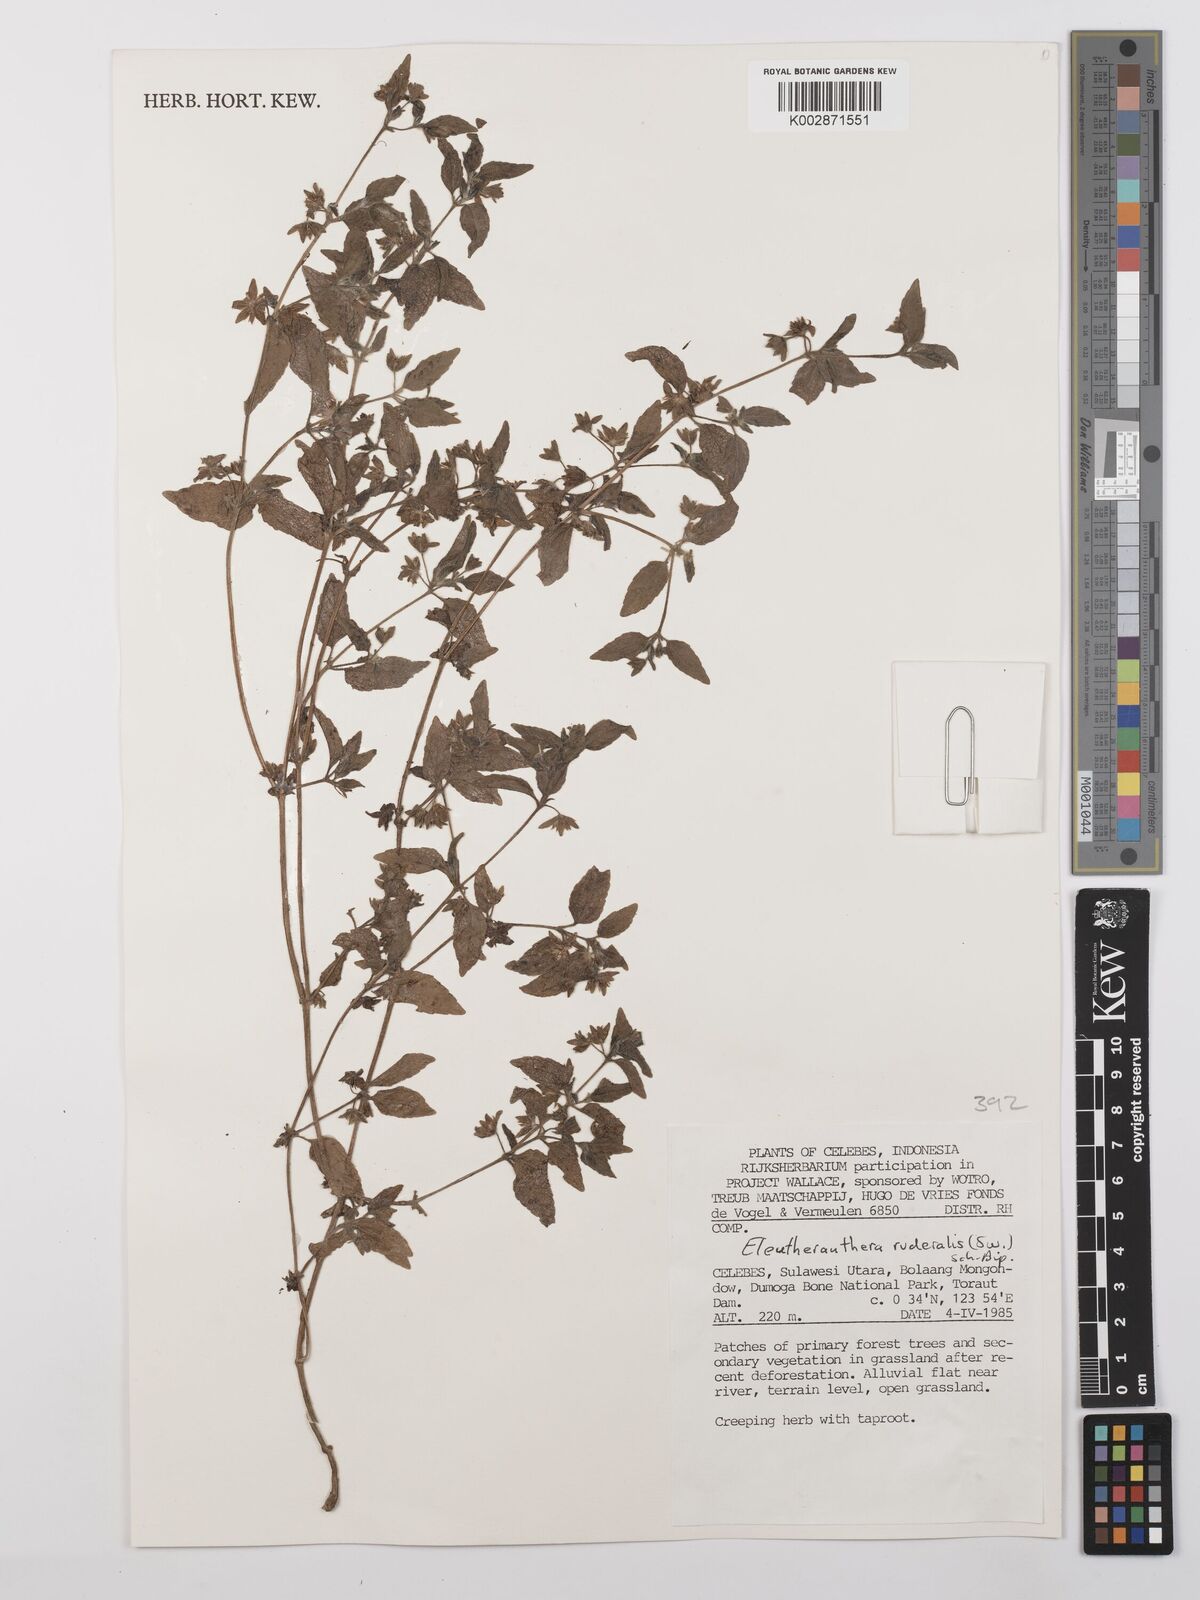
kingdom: Plantae
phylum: Tracheophyta
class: Magnoliopsida
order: Asterales
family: Asteraceae
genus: Eleutheranthera
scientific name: Eleutheranthera ruderalis
